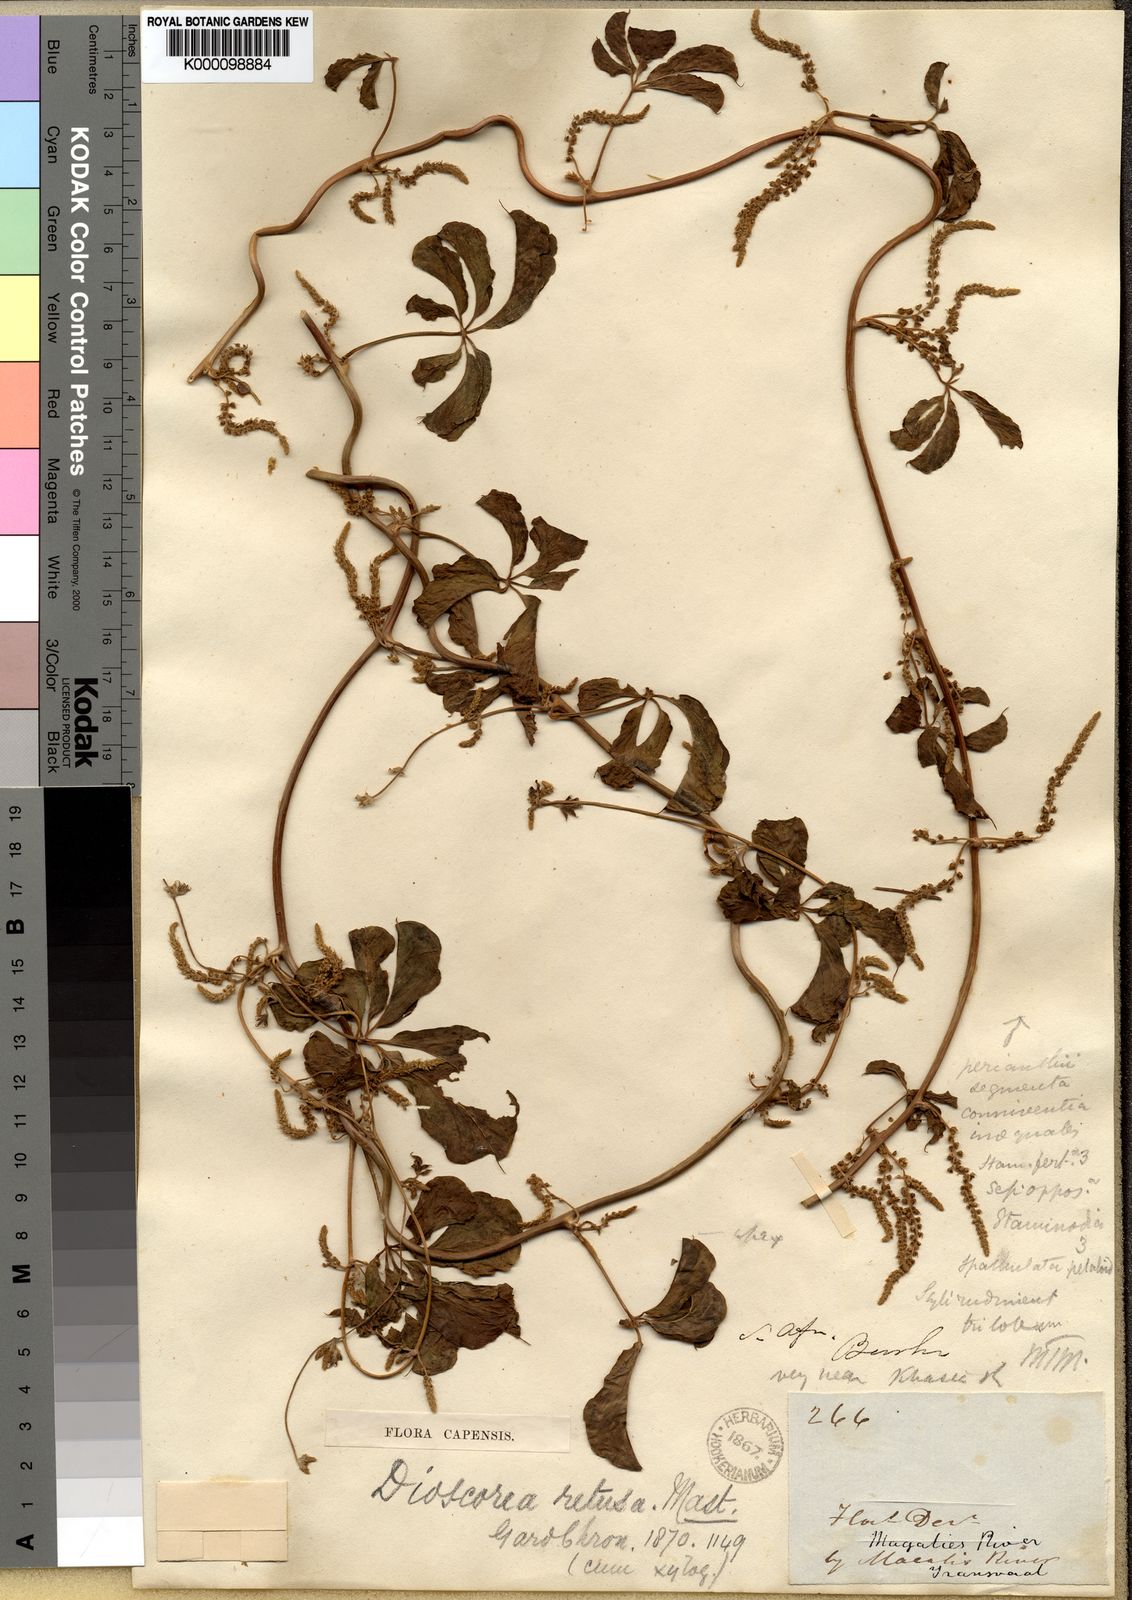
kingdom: Plantae
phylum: Tracheophyta
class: Liliopsida
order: Dioscoreales
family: Dioscoreaceae
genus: Dioscorea
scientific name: Dioscorea retusa
